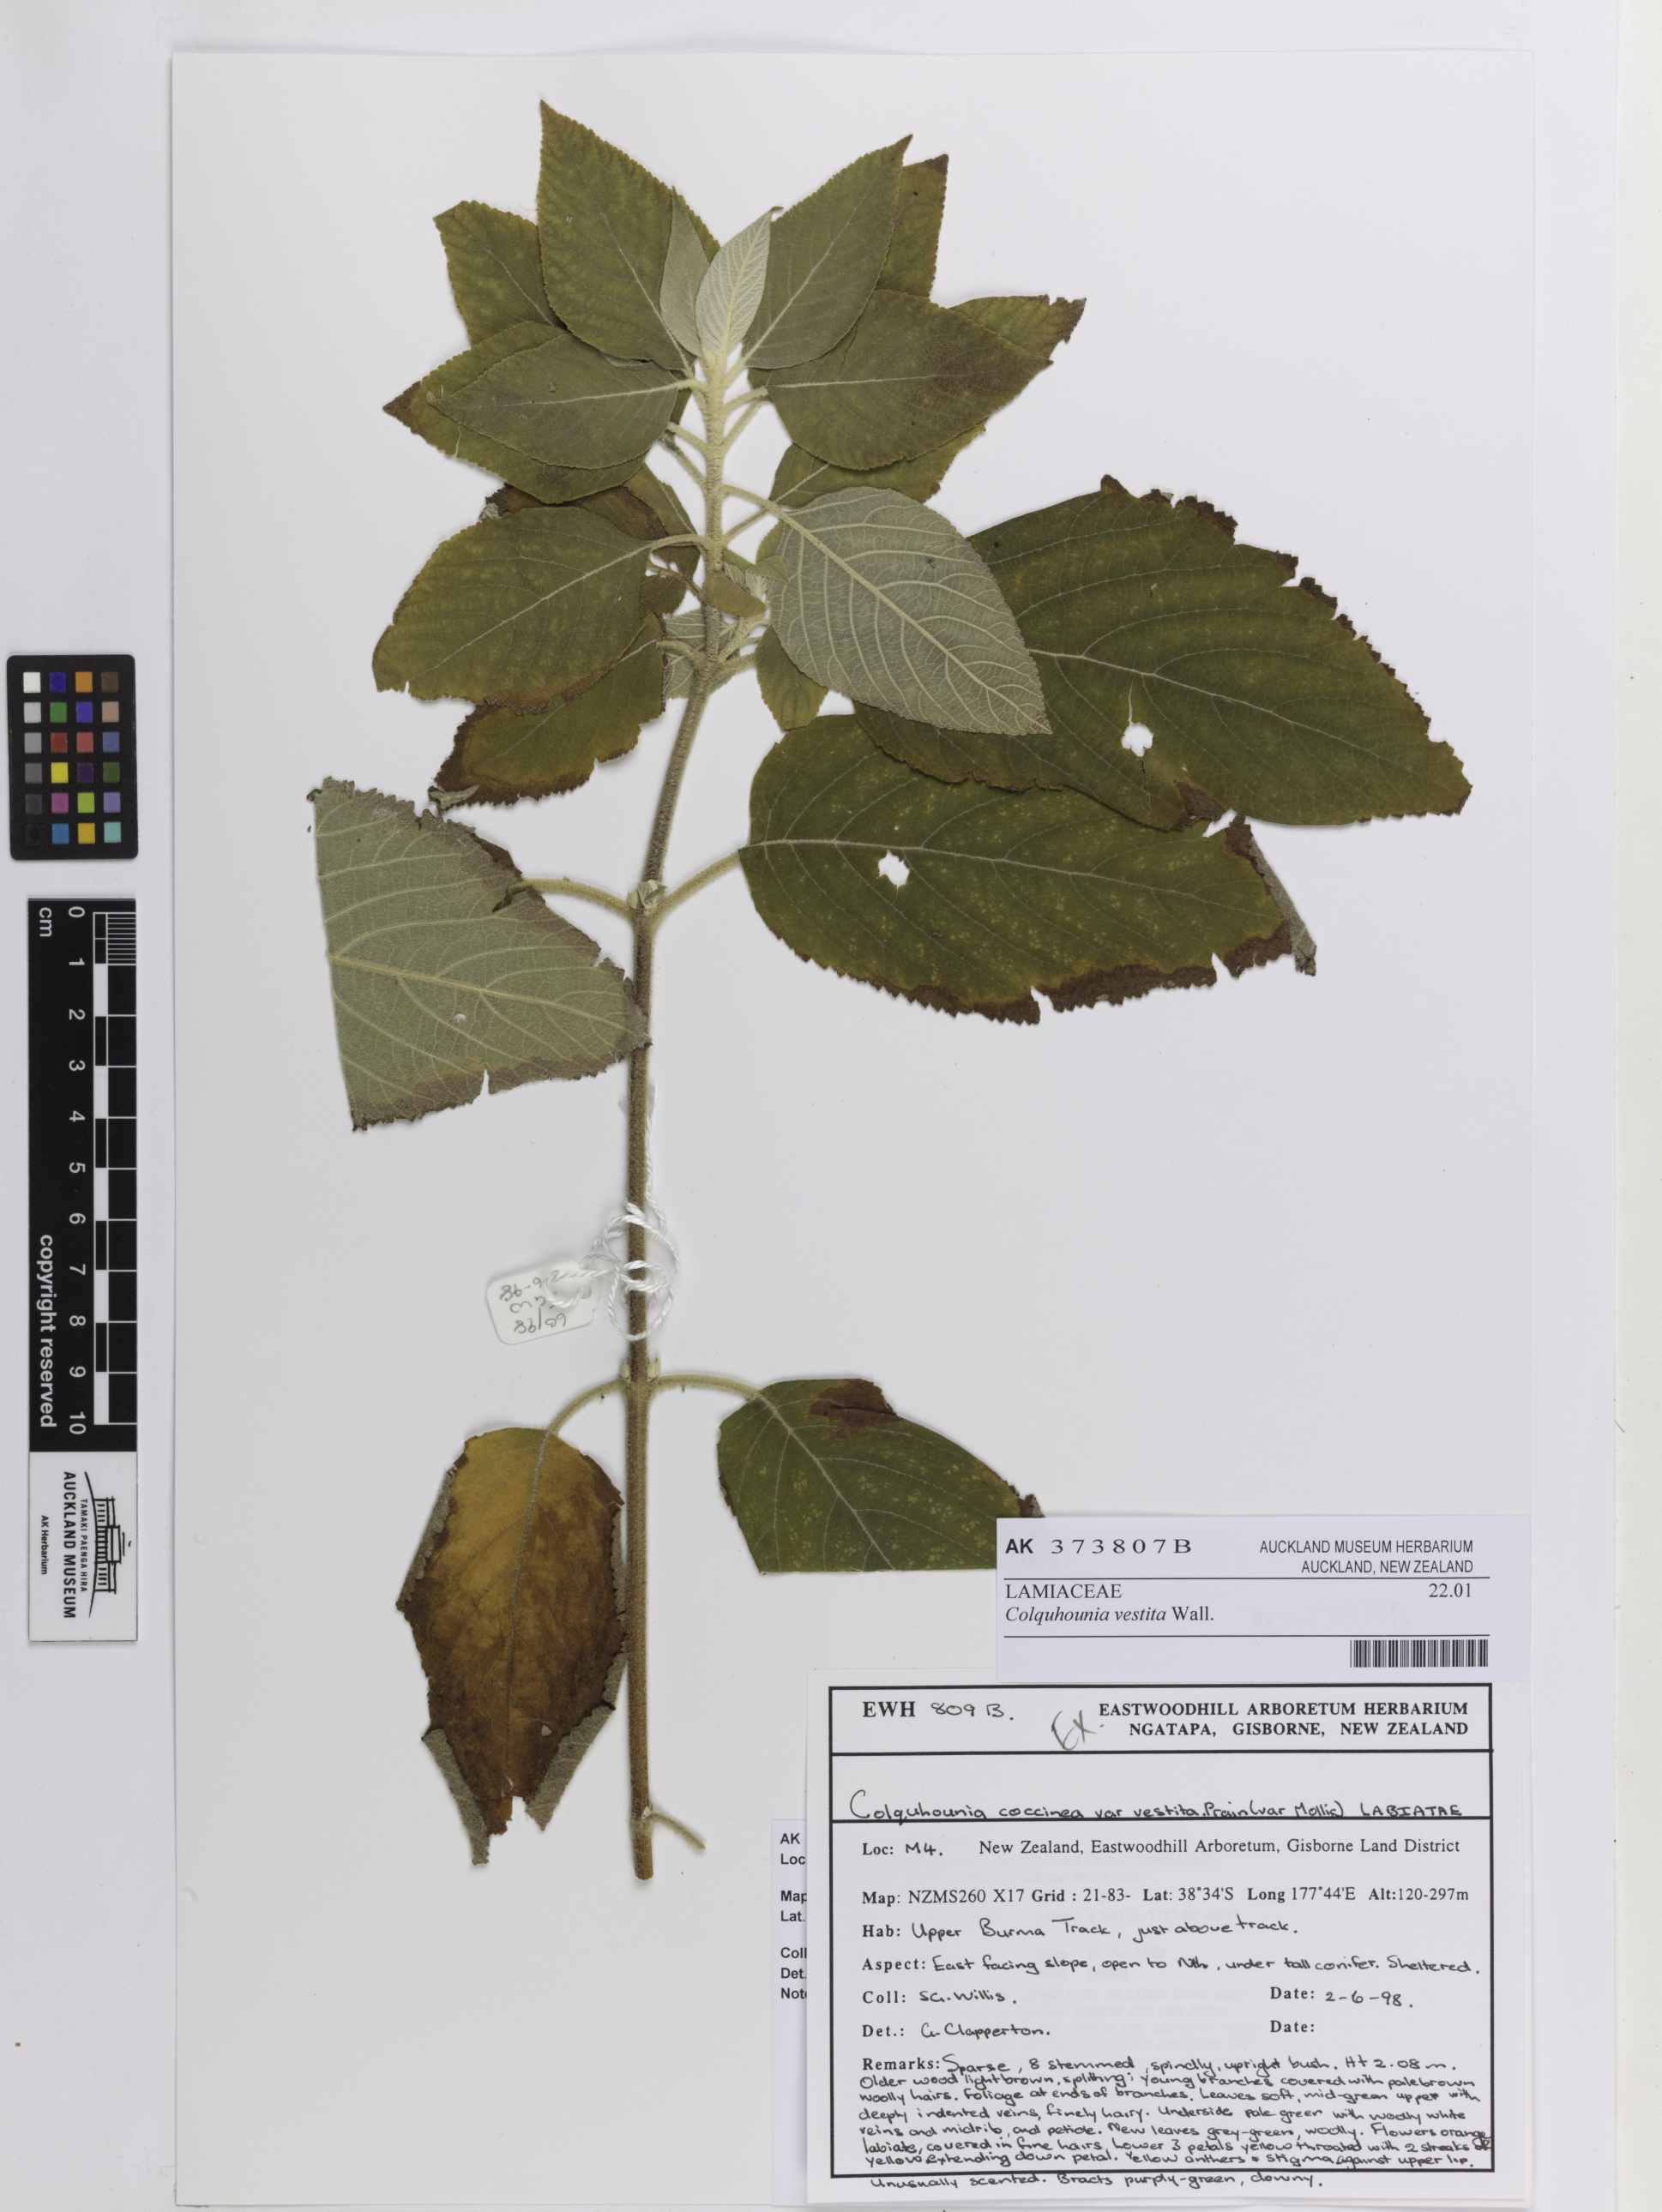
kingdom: Plantae
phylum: Tracheophyta
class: Magnoliopsida
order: Lamiales
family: Lamiaceae
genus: Colquhounia
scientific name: Colquhounia vestita
